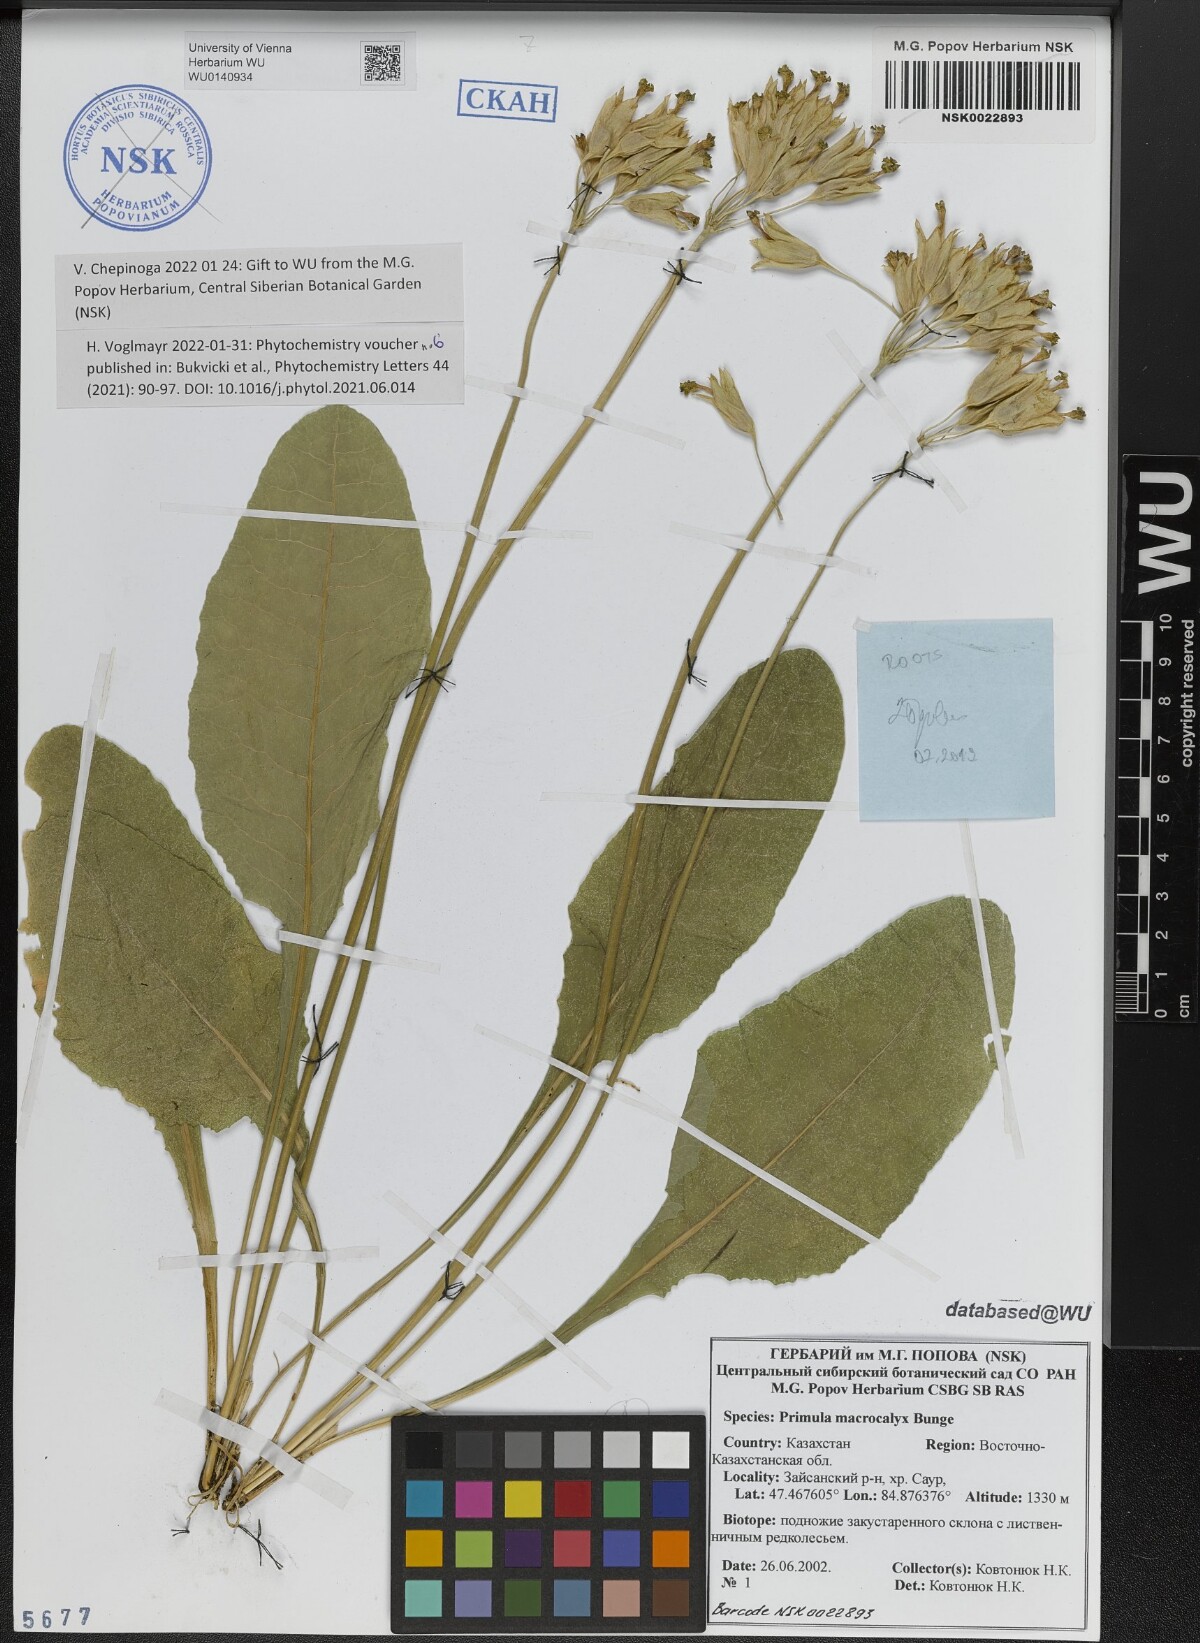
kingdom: Plantae
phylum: Tracheophyta
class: Magnoliopsida
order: Ericales
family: Primulaceae
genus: Primula
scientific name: Primula veris
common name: Cowslip
